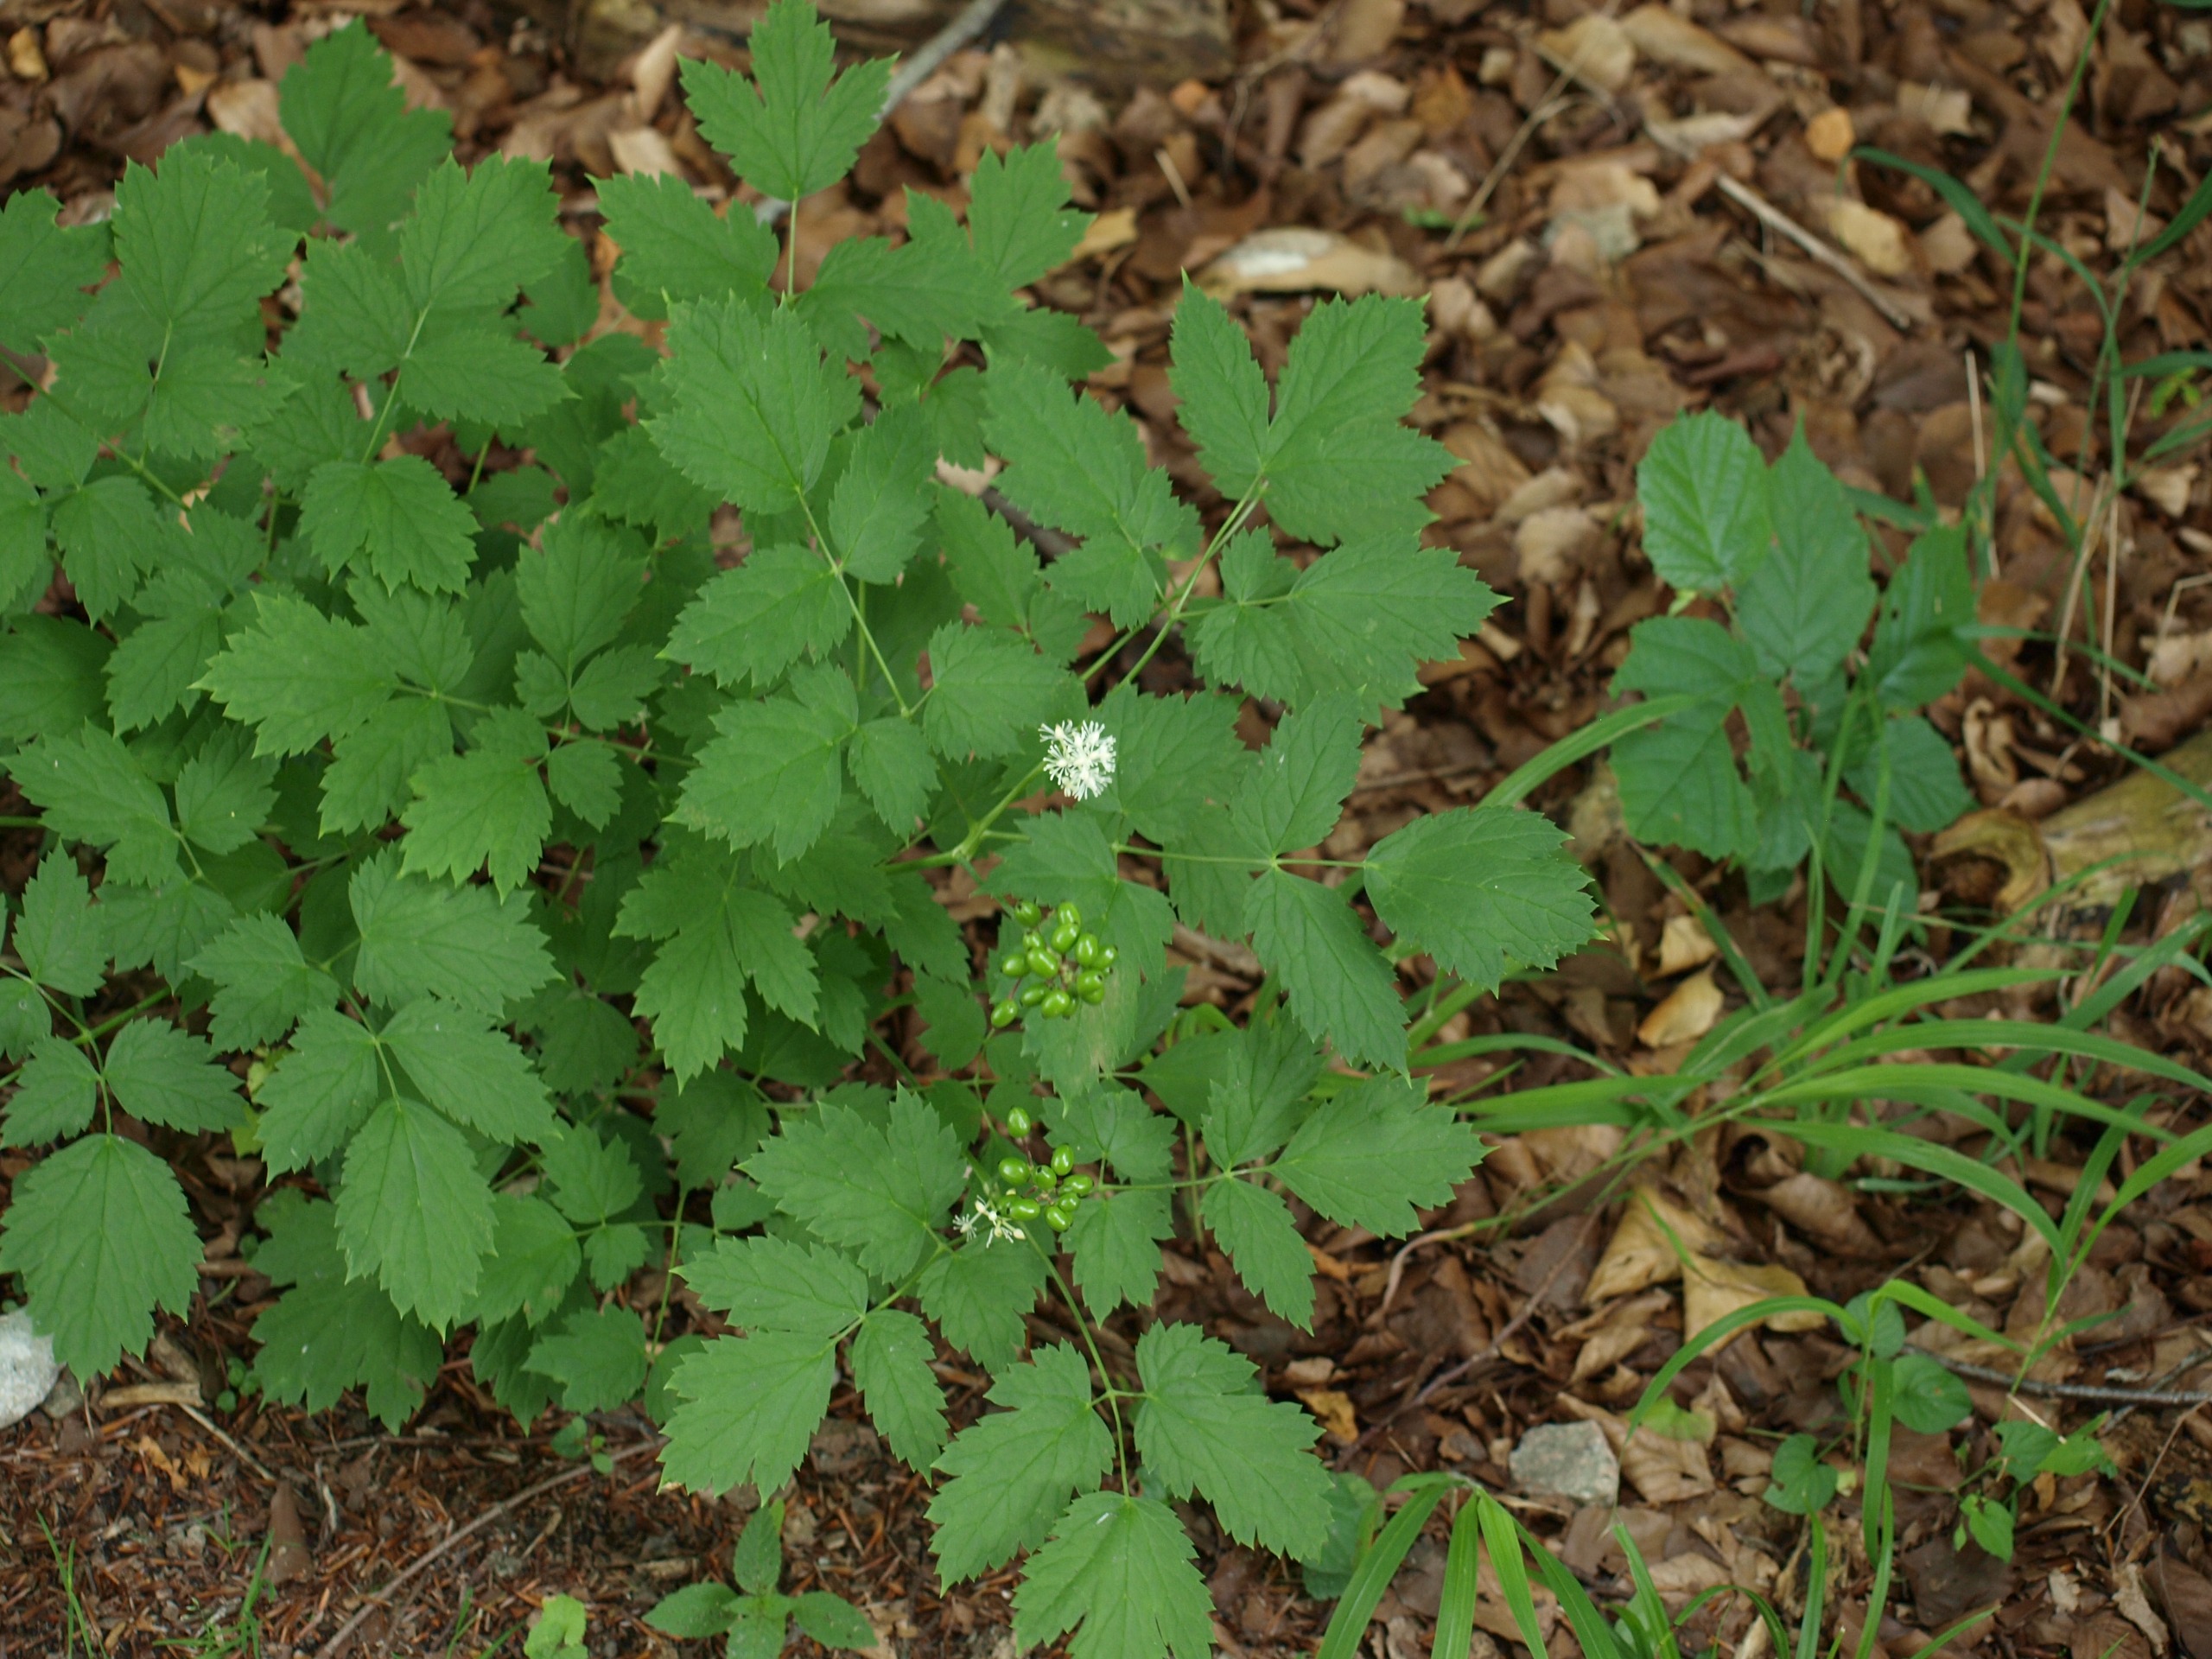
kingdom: Plantae
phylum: Tracheophyta
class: Magnoliopsida
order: Ranunculales
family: Ranunculaceae
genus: Actaea
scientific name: Actaea spicata
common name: Druemunke
